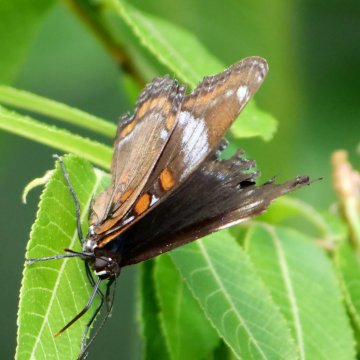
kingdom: Animalia
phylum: Arthropoda
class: Insecta
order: Lepidoptera
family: Nymphalidae
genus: Limenitis
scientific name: Limenitis arthemis
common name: Red-spotted Admiral
